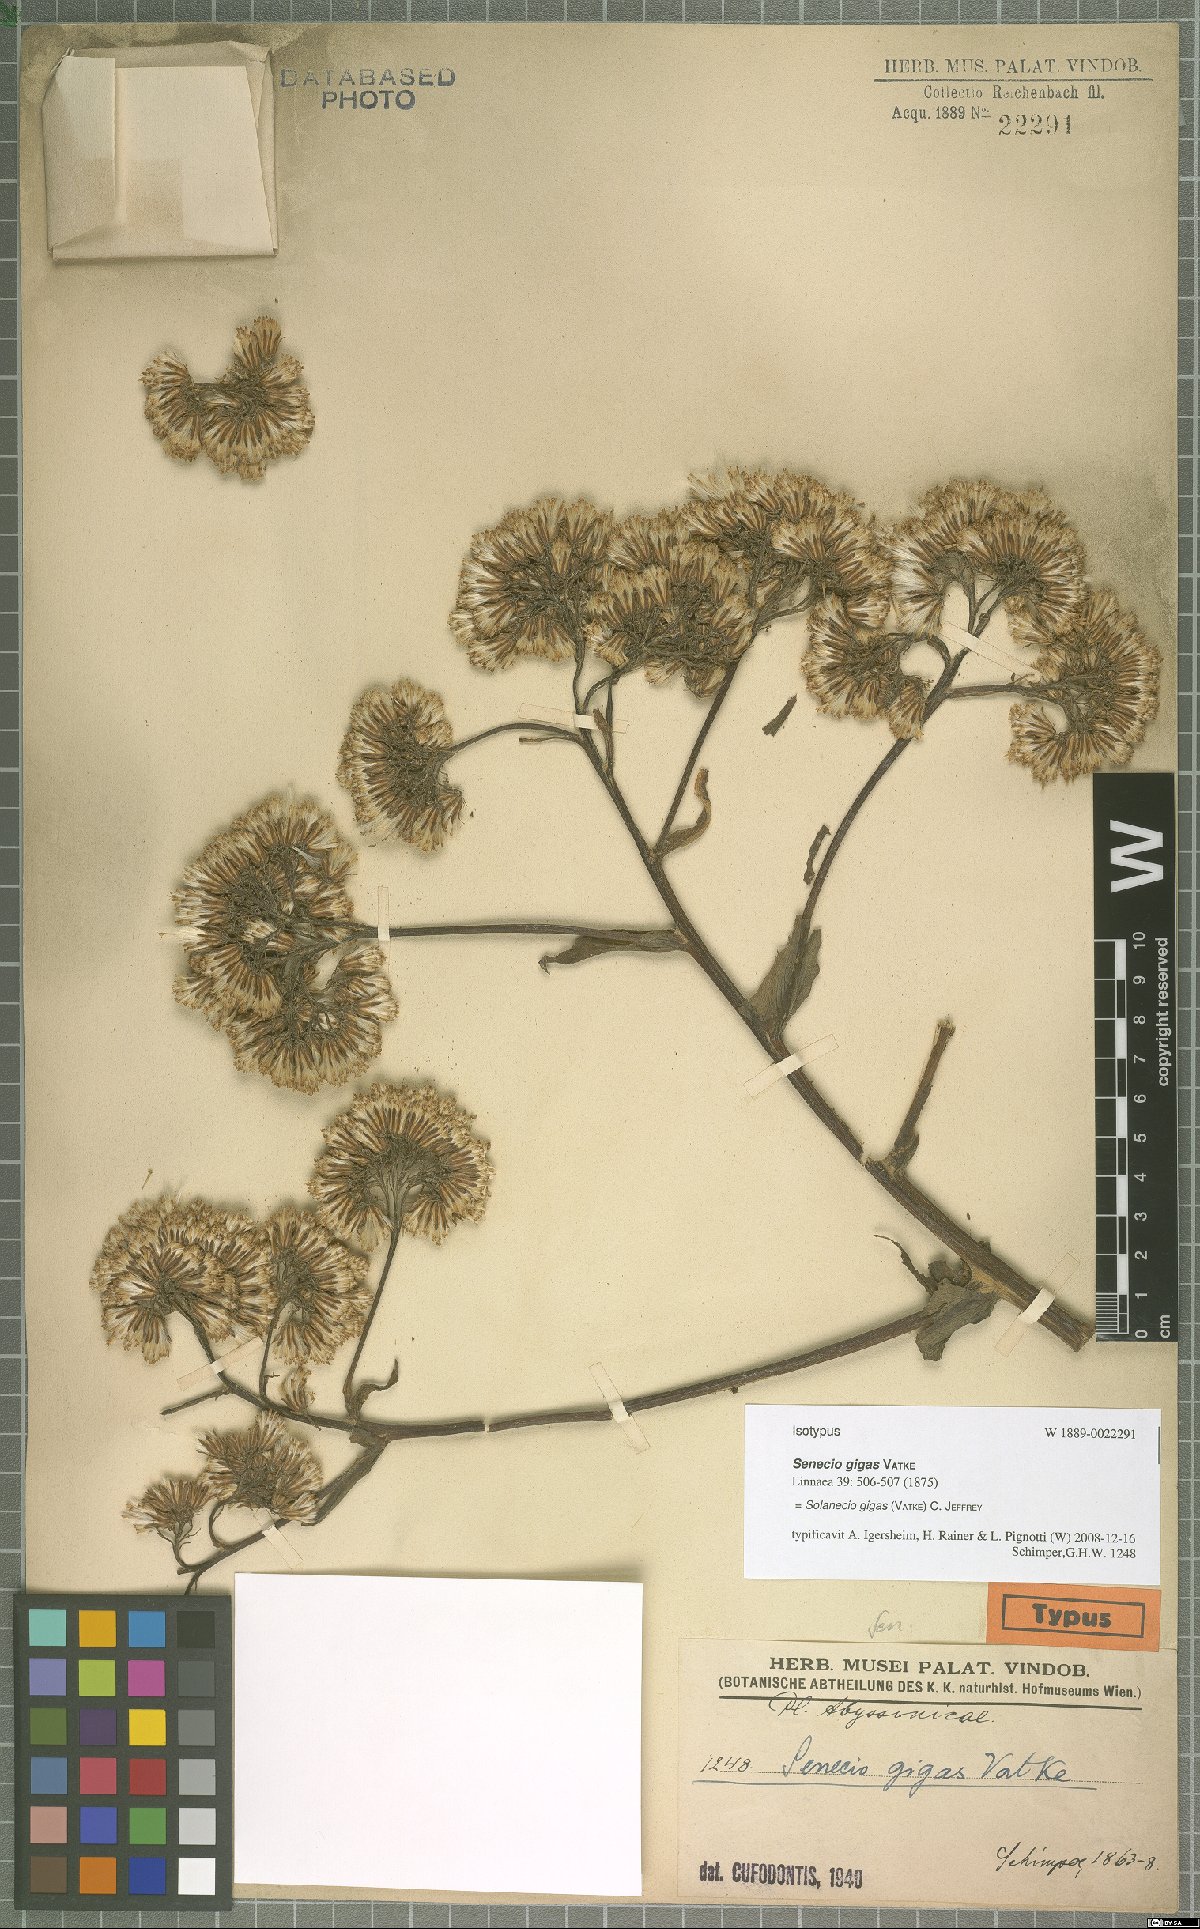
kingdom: Plantae
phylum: Tracheophyta
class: Magnoliopsida
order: Asterales
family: Asteraceae
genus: Solanecio
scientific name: Solanecio gigas
